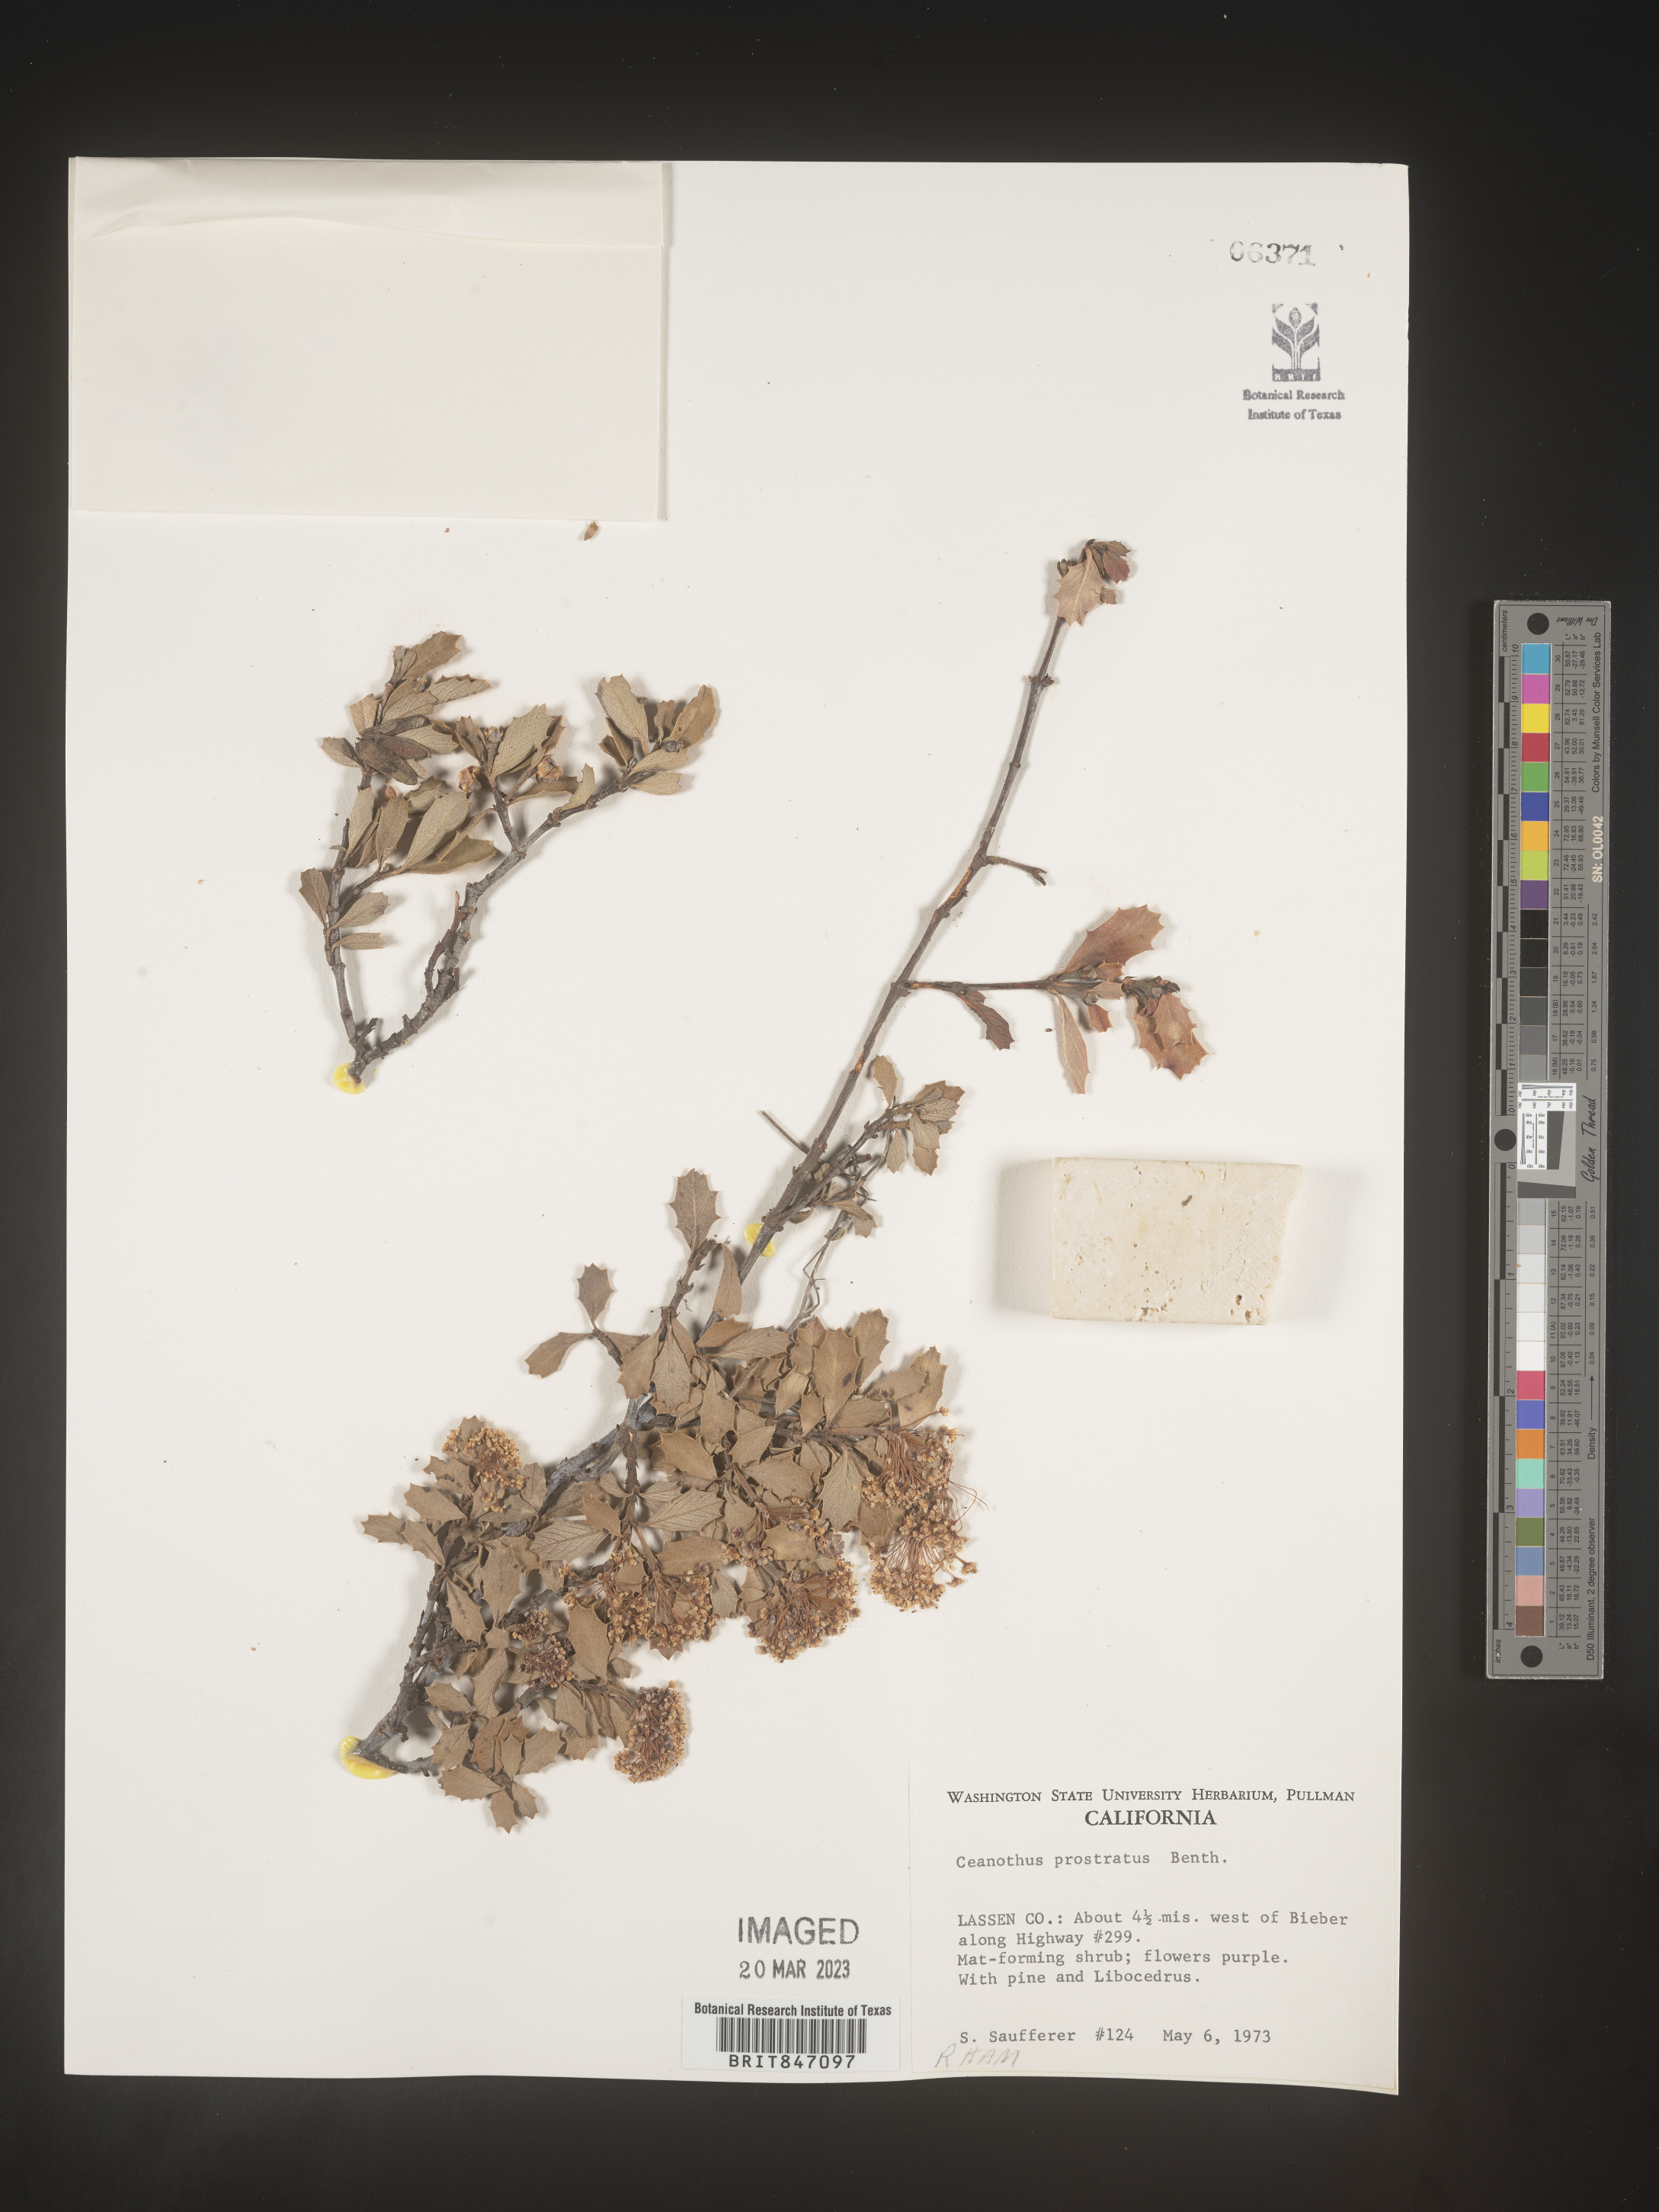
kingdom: Plantae
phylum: Tracheophyta
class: Magnoliopsida
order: Rosales
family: Rhamnaceae
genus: Ceanothus
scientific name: Ceanothus
